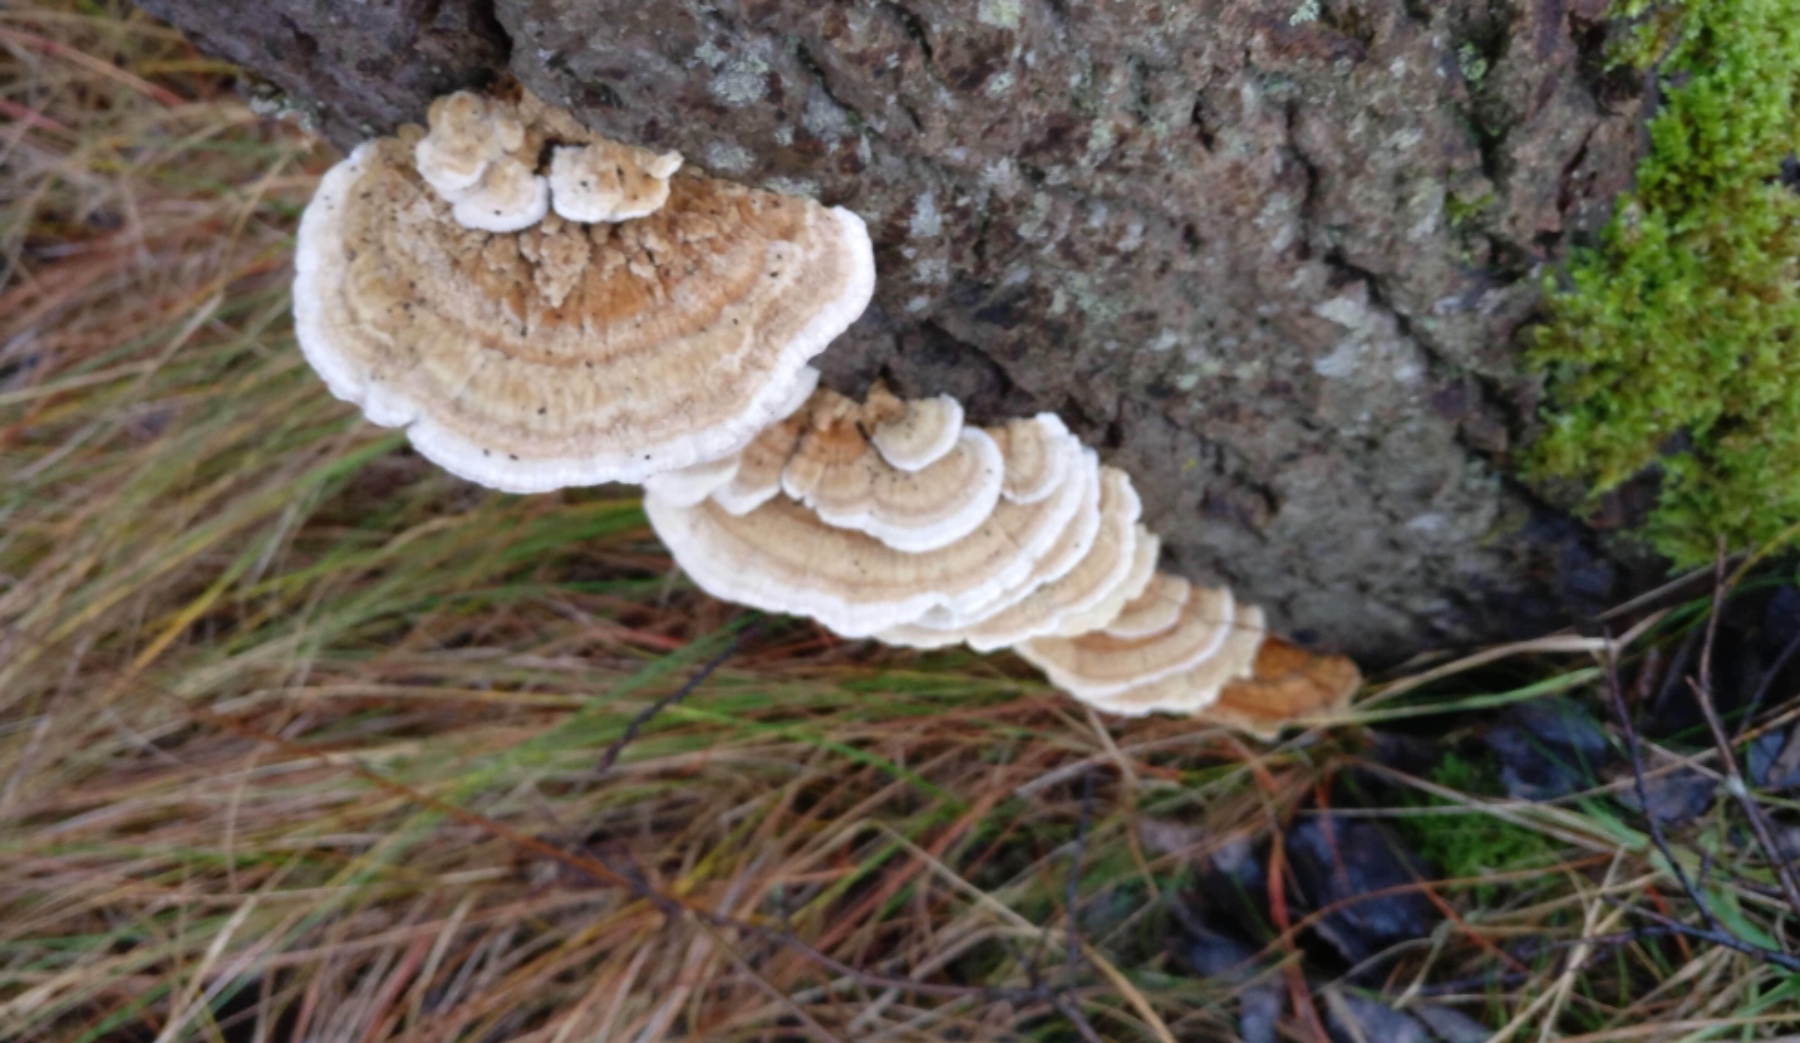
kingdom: Fungi
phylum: Basidiomycota
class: Agaricomycetes
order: Polyporales
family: Polyporaceae
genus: Trametes
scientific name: Trametes ochracea
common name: bæltet læderporesvamp
